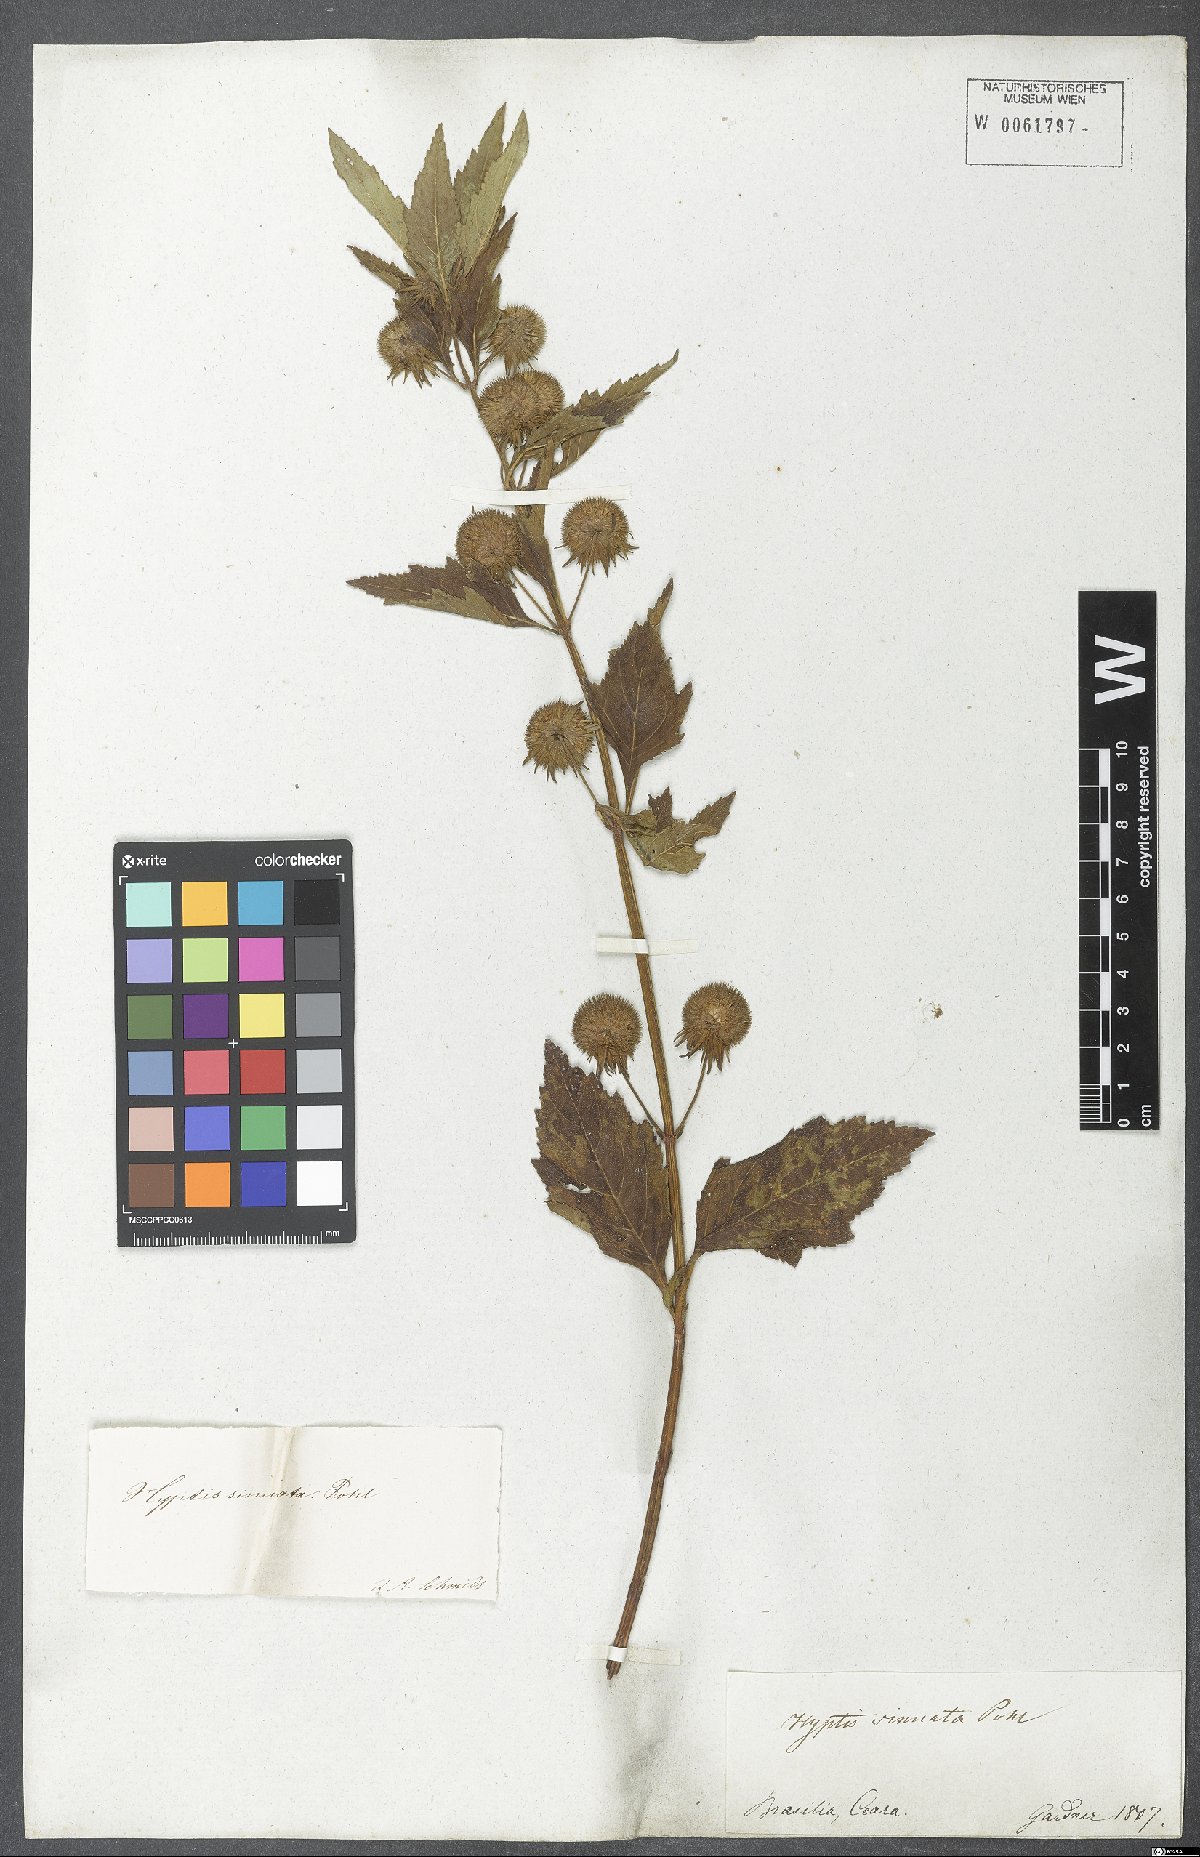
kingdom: Plantae
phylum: Tracheophyta
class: Magnoliopsida
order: Lamiales
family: Lamiaceae
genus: Hyptis
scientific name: Hyptis sinuata
